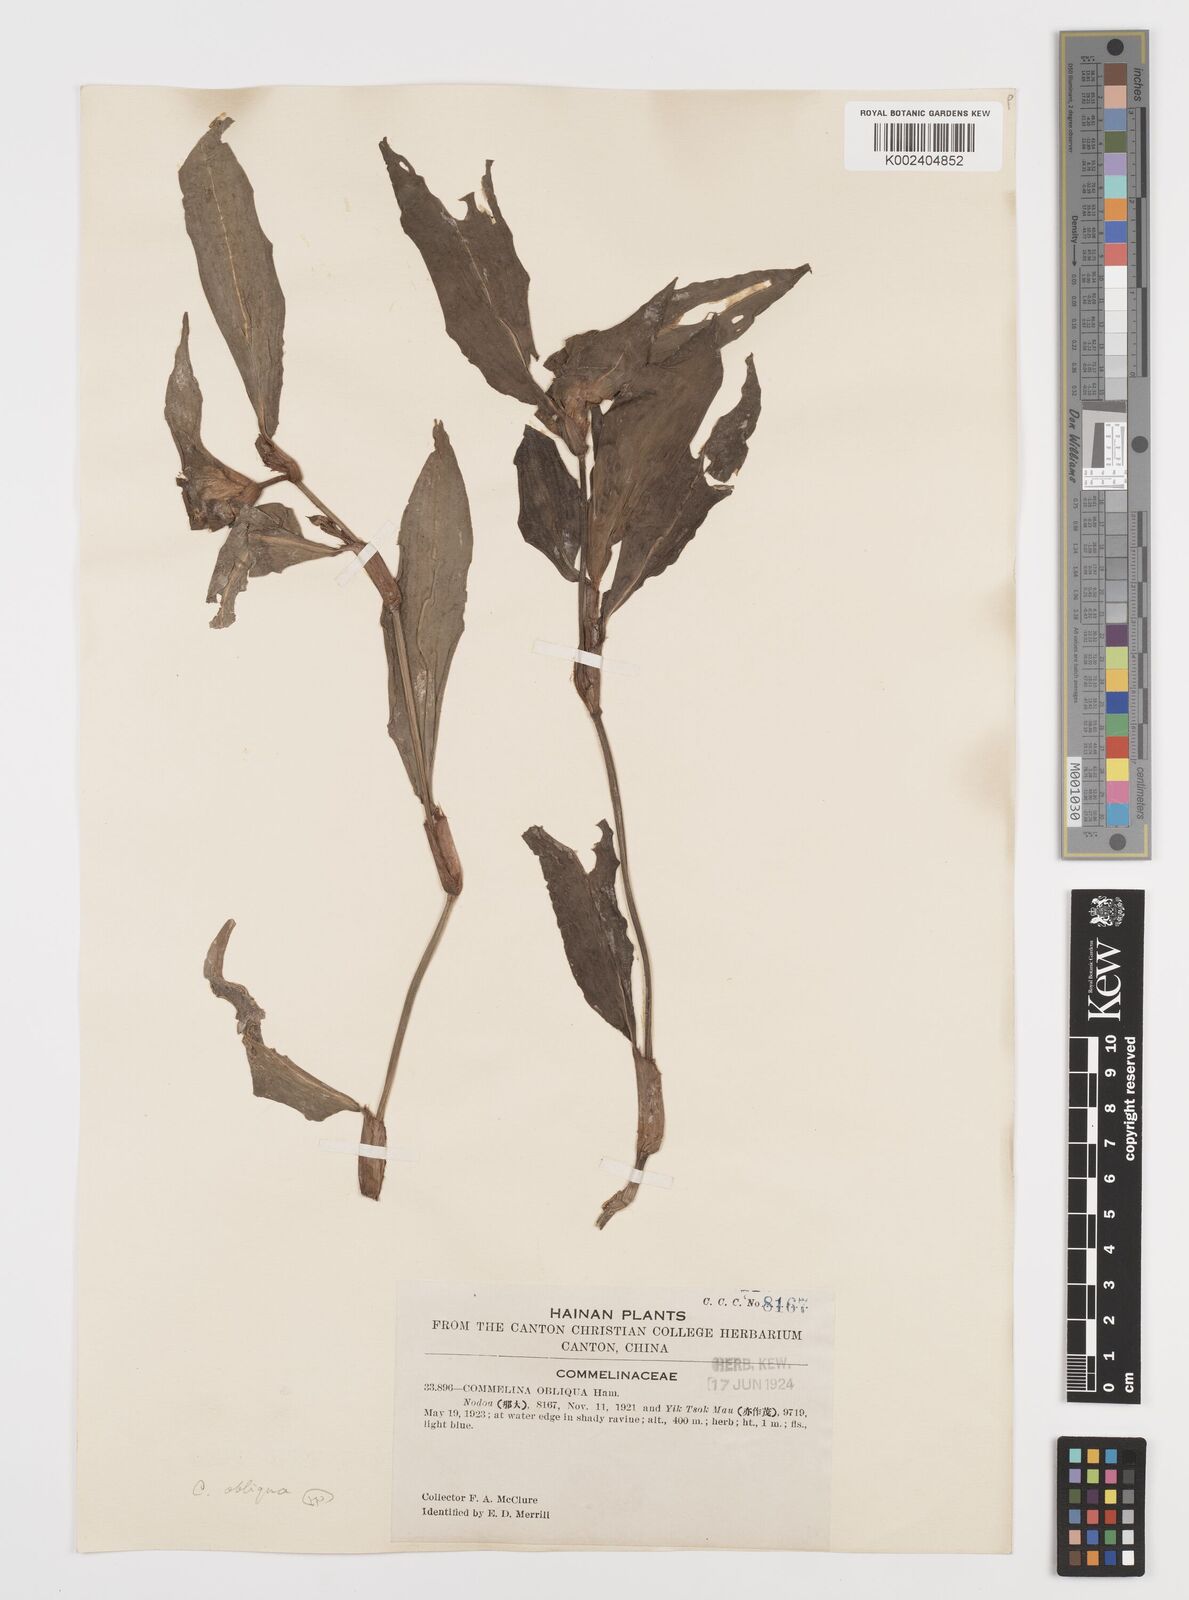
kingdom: Plantae
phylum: Tracheophyta
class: Liliopsida
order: Commelinales
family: Commelinaceae
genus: Commelina
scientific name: Commelina obliqua
